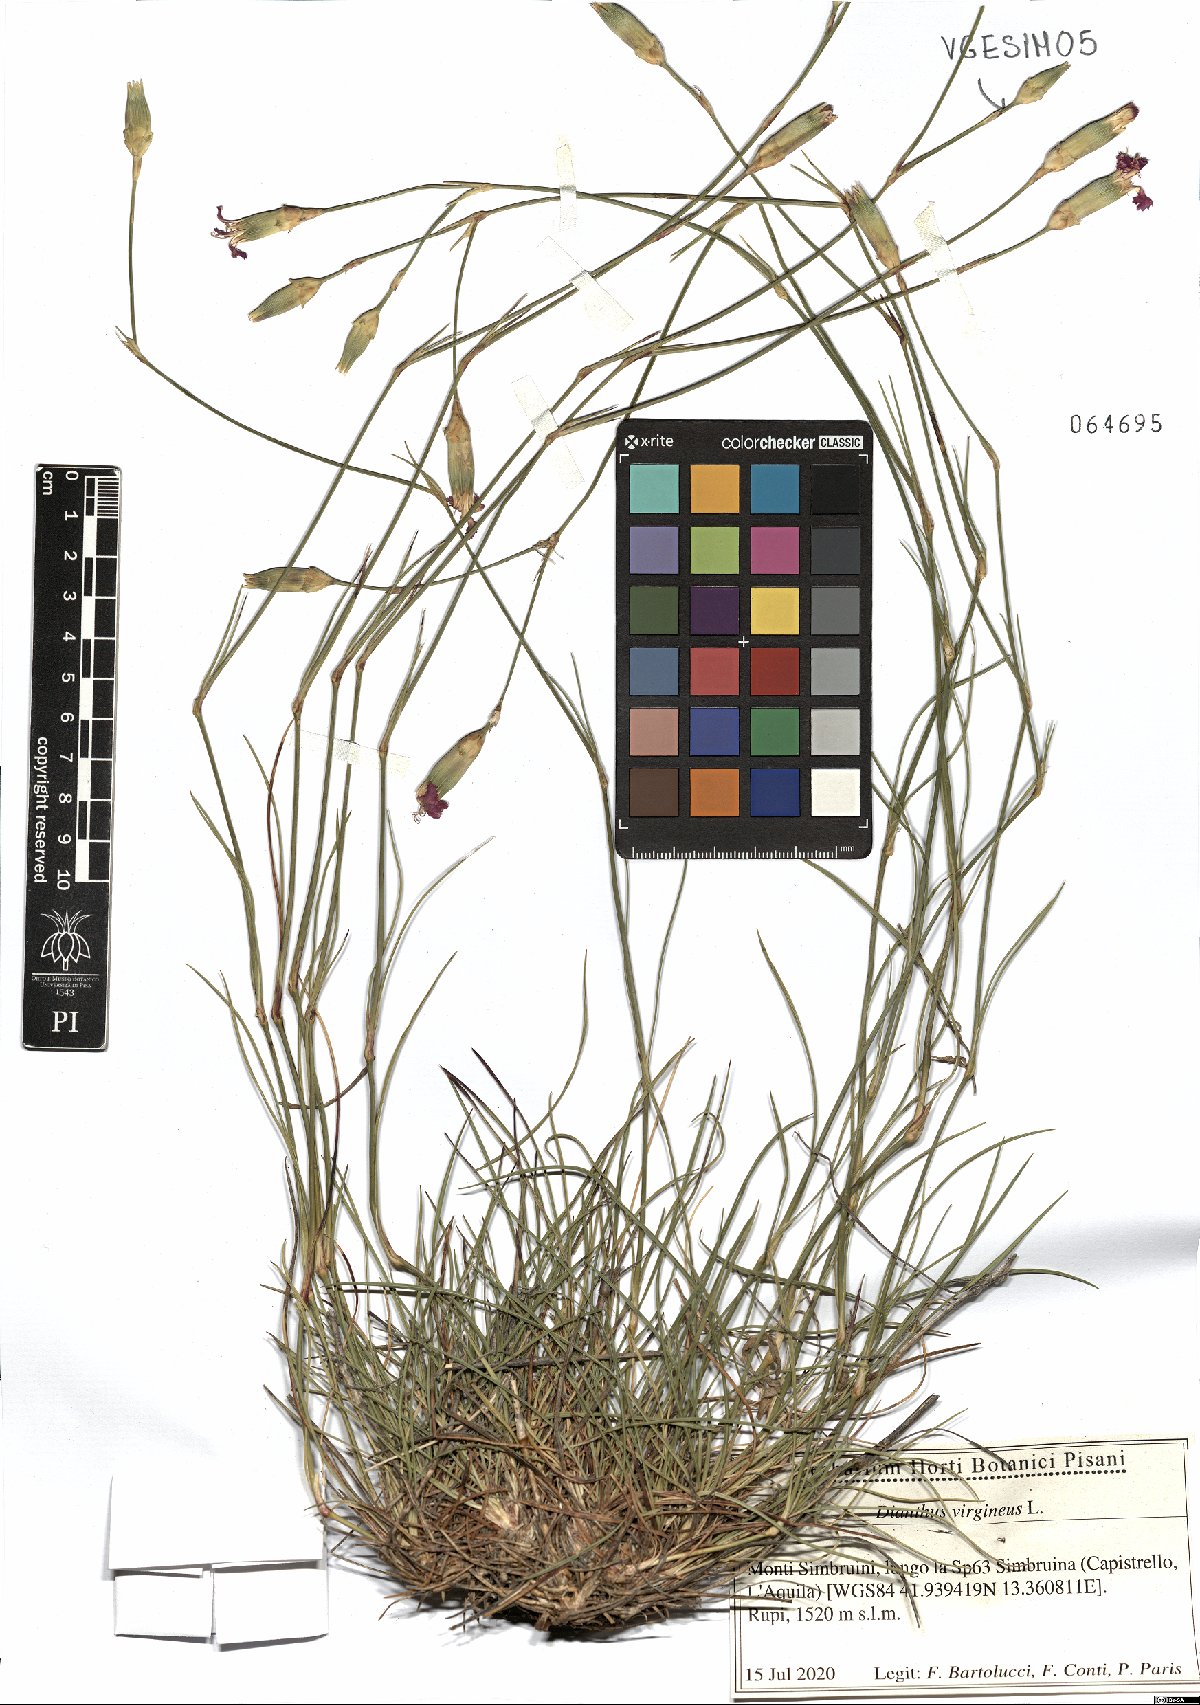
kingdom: Plantae
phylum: Tracheophyta
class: Magnoliopsida
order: Caryophyllales
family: Caryophyllaceae
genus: Dianthus
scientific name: Dianthus virgineus
